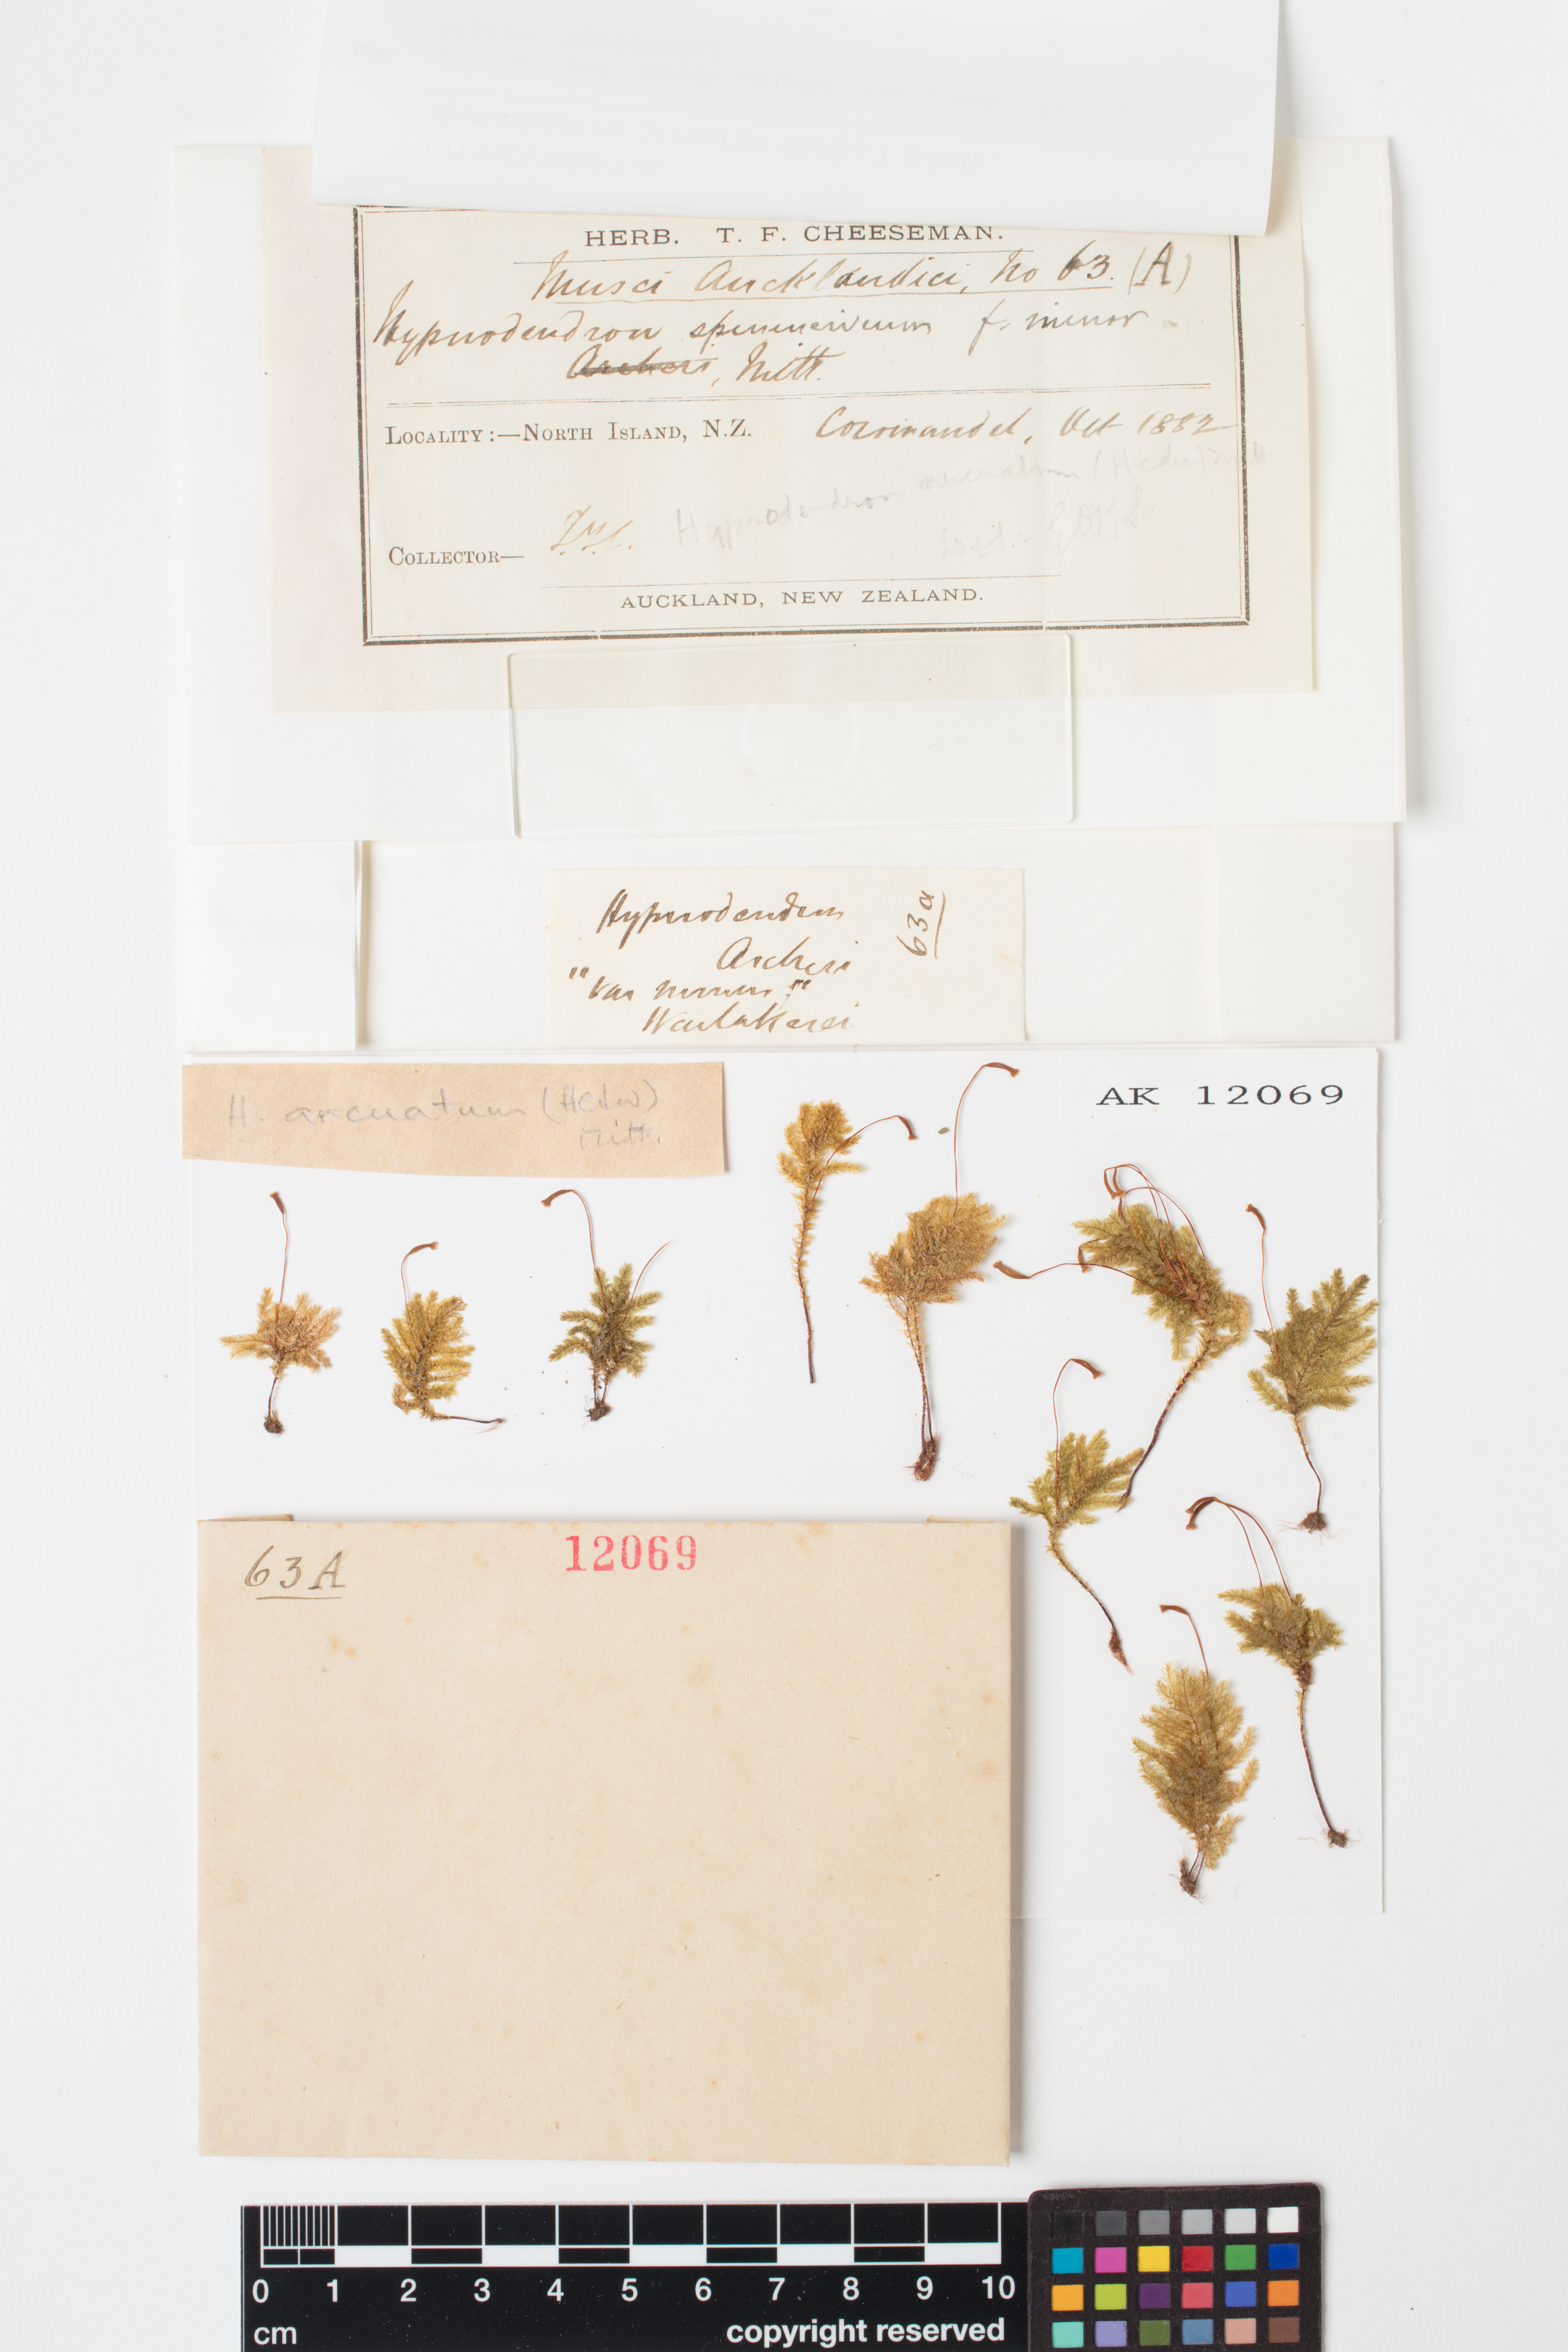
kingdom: Plantae
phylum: Bryophyta
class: Bryopsida
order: Hypnodendrales
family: Spiridentaceae
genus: Hypnodendron
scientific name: Hypnodendron arcuatum
